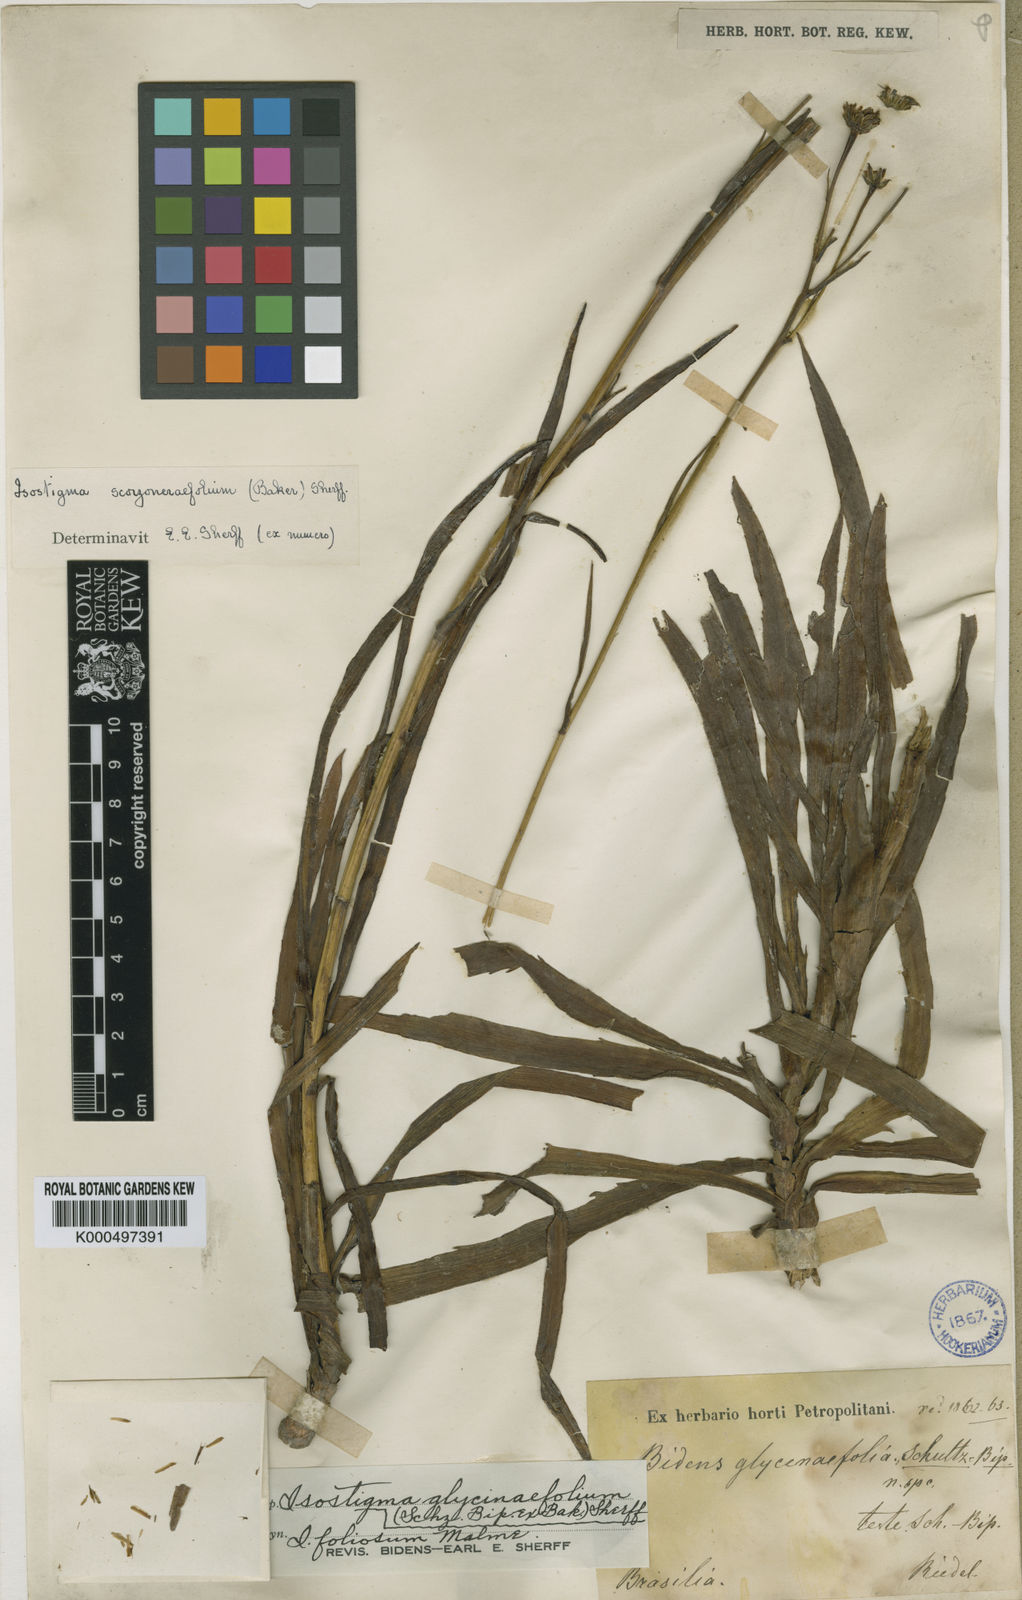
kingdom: Plantae
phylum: Tracheophyta
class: Magnoliopsida
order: Asterales
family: Asteraceae
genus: Isostigma
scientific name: Isostigma
